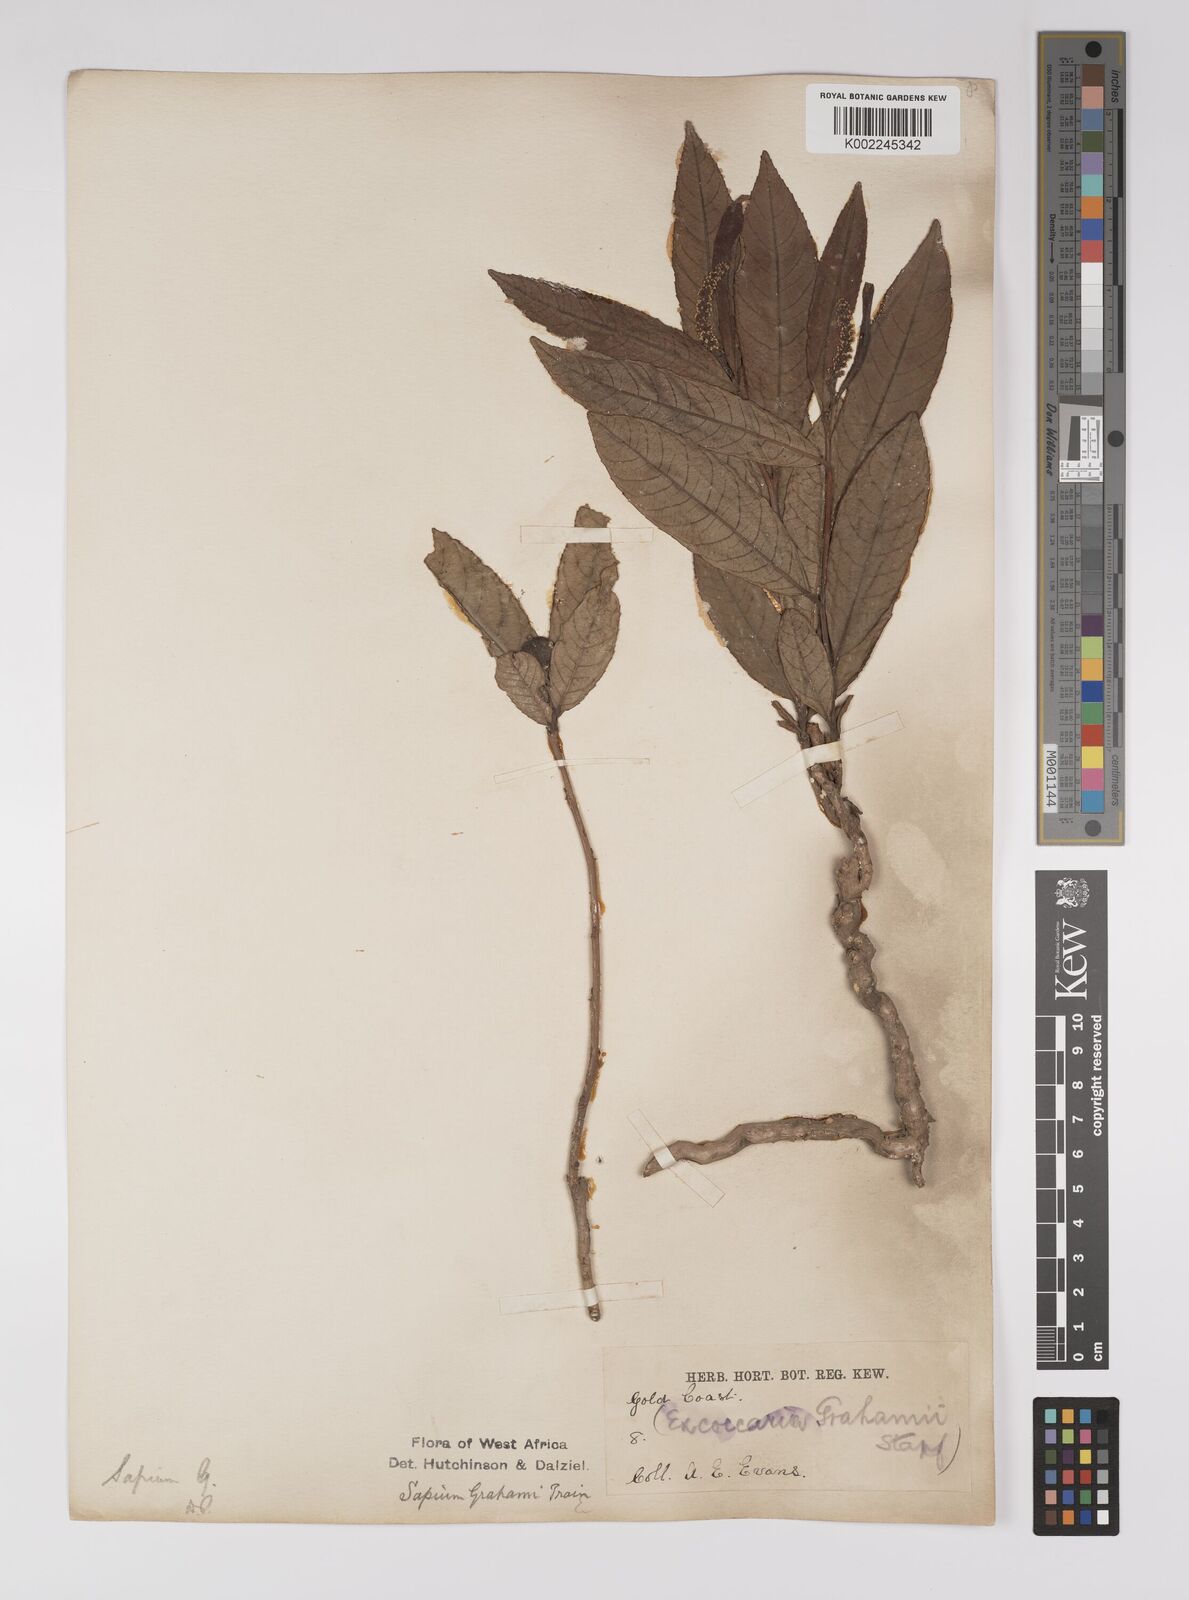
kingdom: Plantae
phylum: Tracheophyta
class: Magnoliopsida
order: Malpighiales
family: Euphorbiaceae
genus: Excoecaria
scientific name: Excoecaria grahamii
